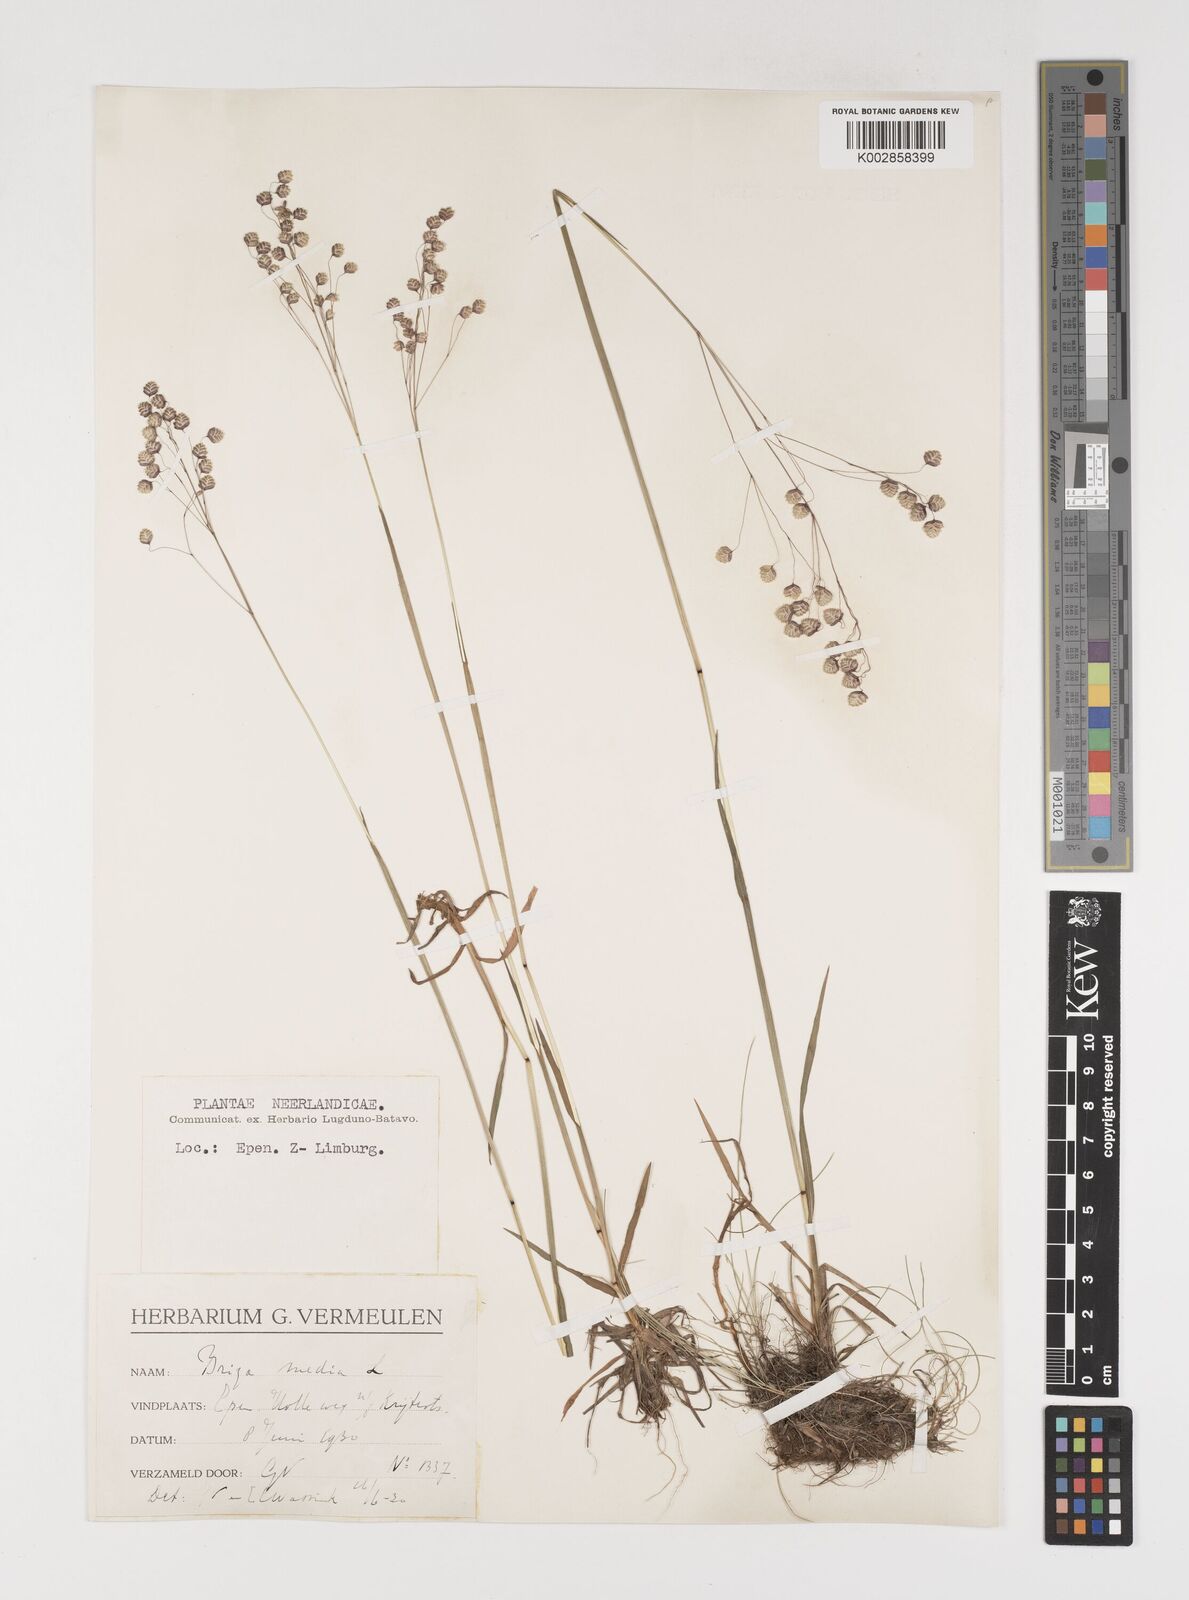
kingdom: Plantae
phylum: Tracheophyta
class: Liliopsida
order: Poales
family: Poaceae
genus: Briza
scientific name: Briza media
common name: Quaking grass
